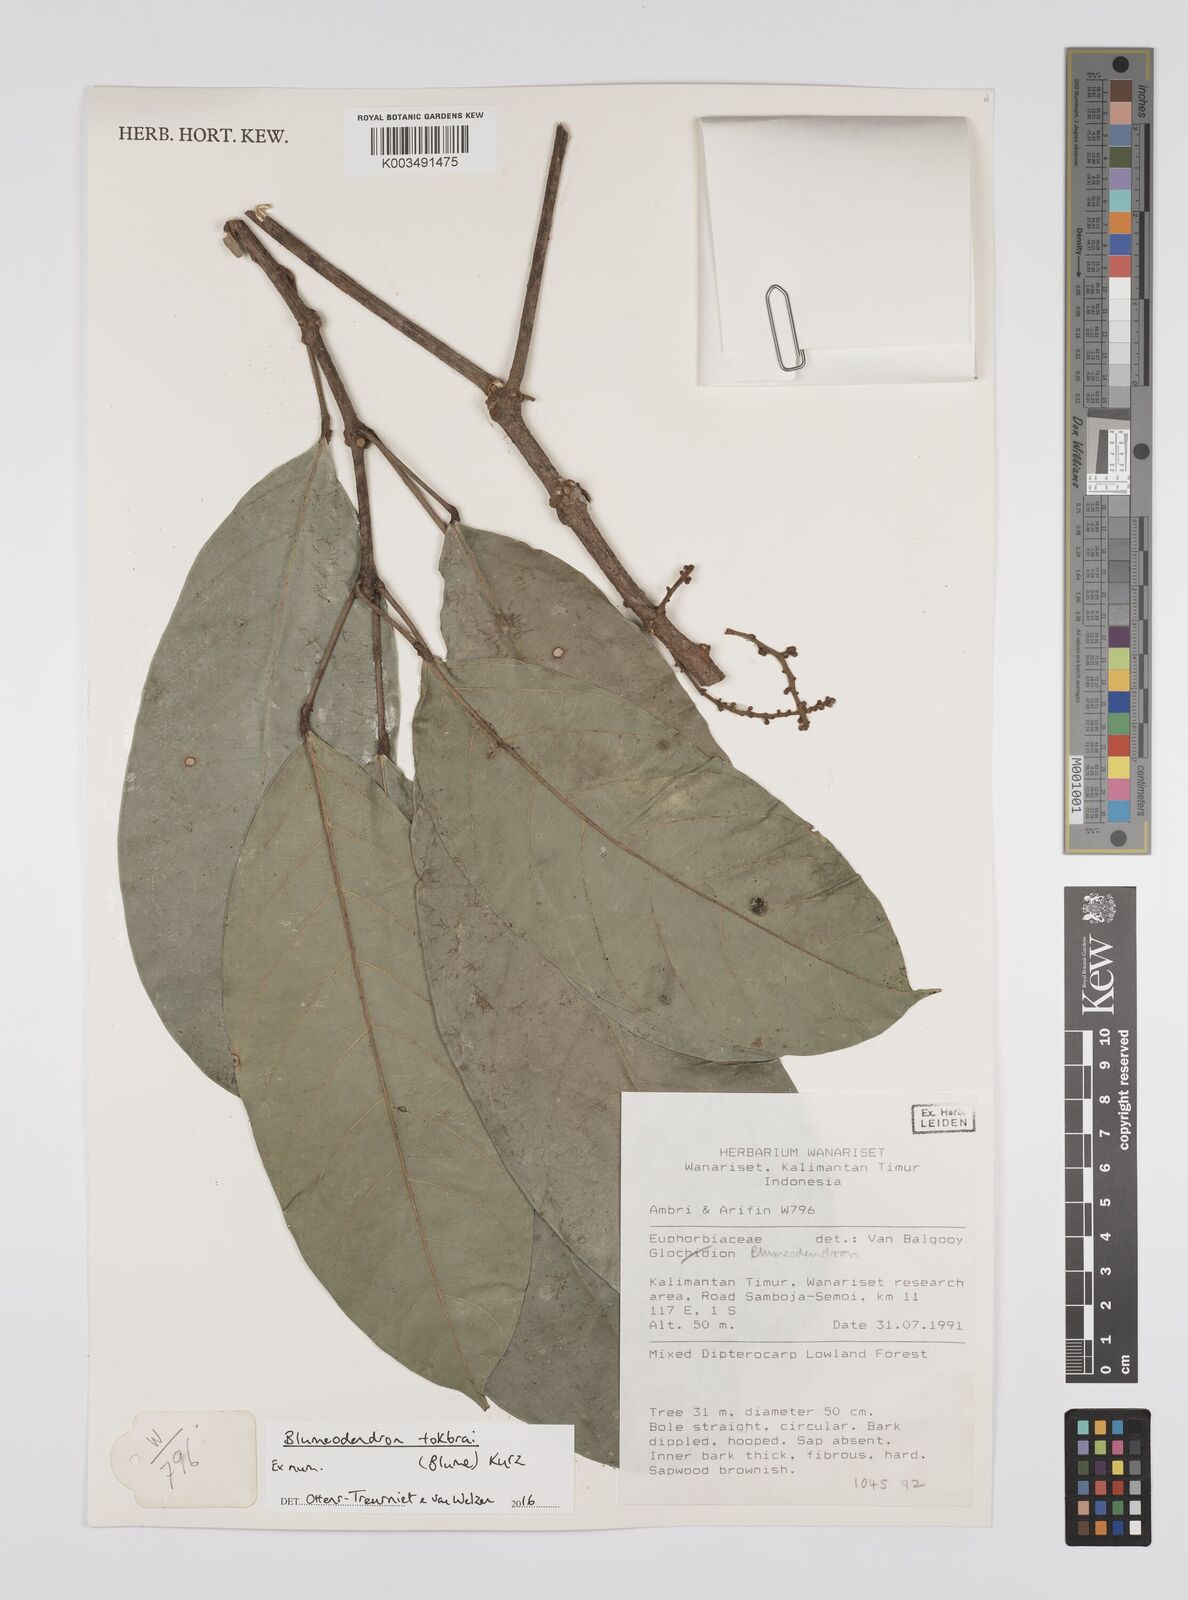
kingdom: Plantae
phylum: Tracheophyta
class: Magnoliopsida
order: Malpighiales
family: Euphorbiaceae
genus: Blumeodendron
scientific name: Blumeodendron tokbrai
